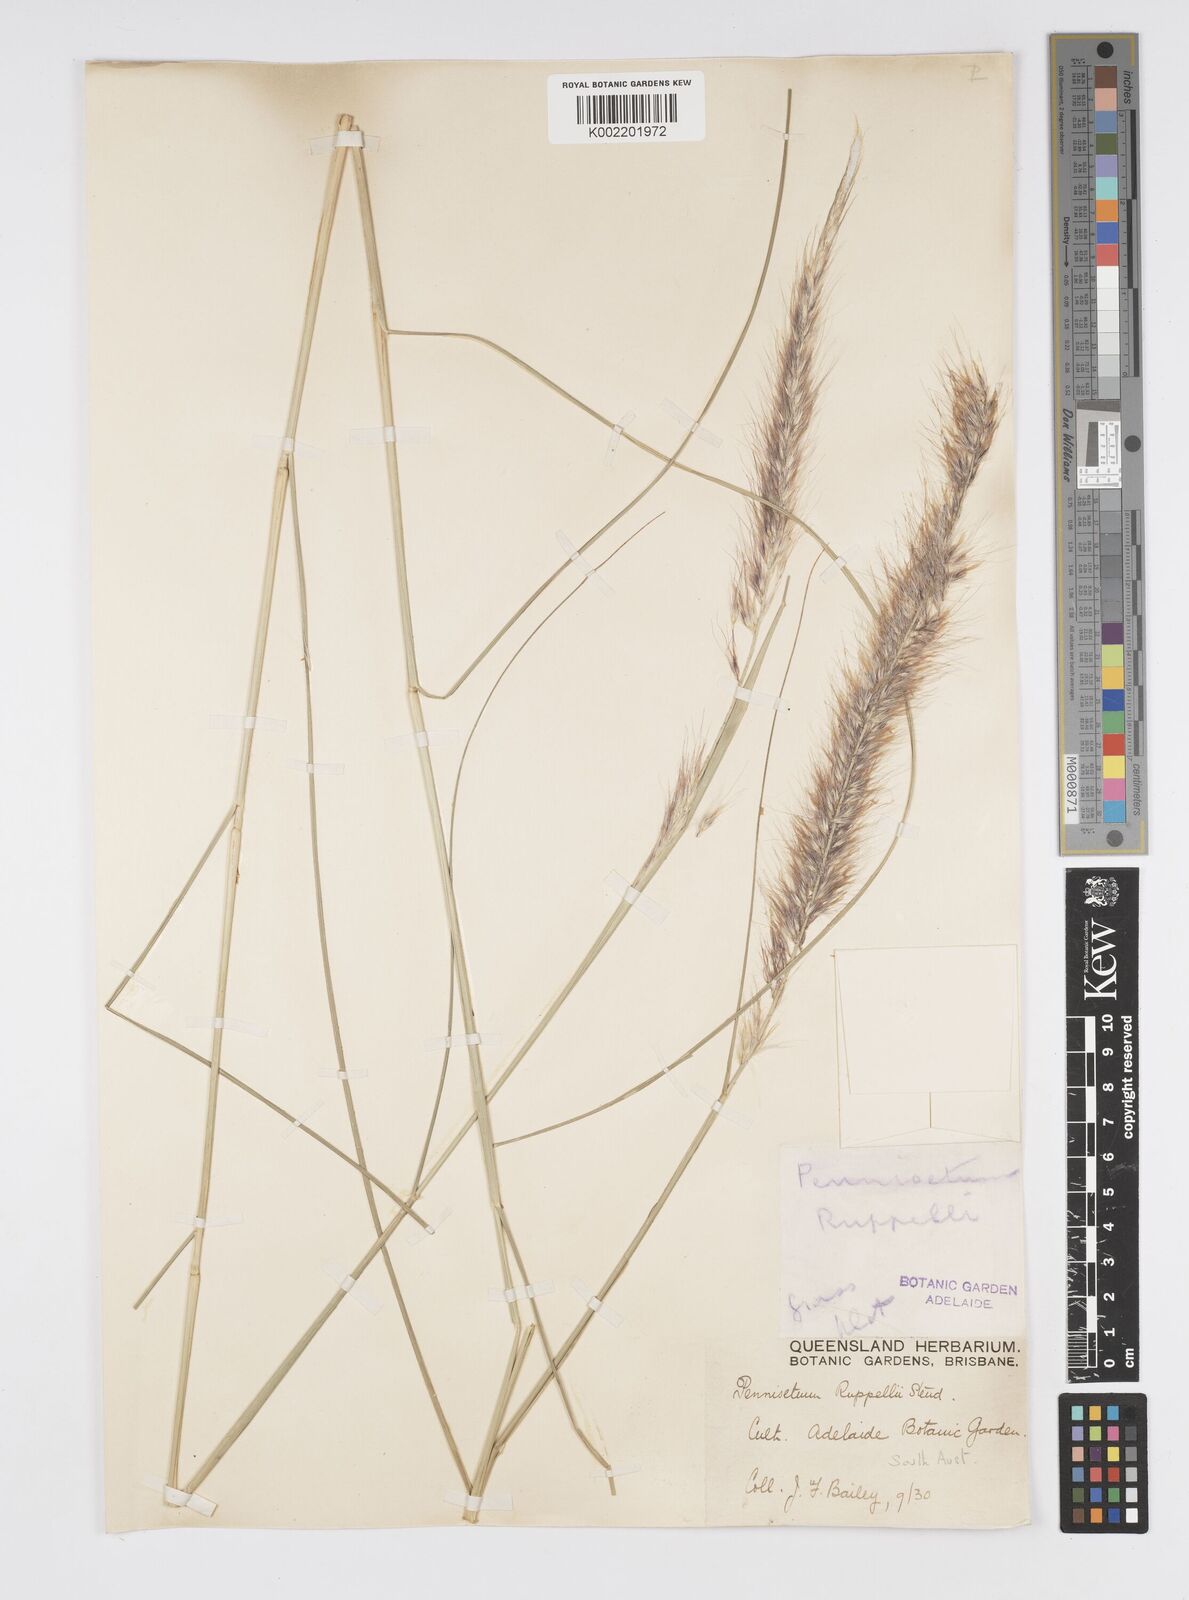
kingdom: Plantae
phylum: Tracheophyta
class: Liliopsida
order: Poales
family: Poaceae
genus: Cenchrus
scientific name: Cenchrus setaceus
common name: Crimson fountaingrass
